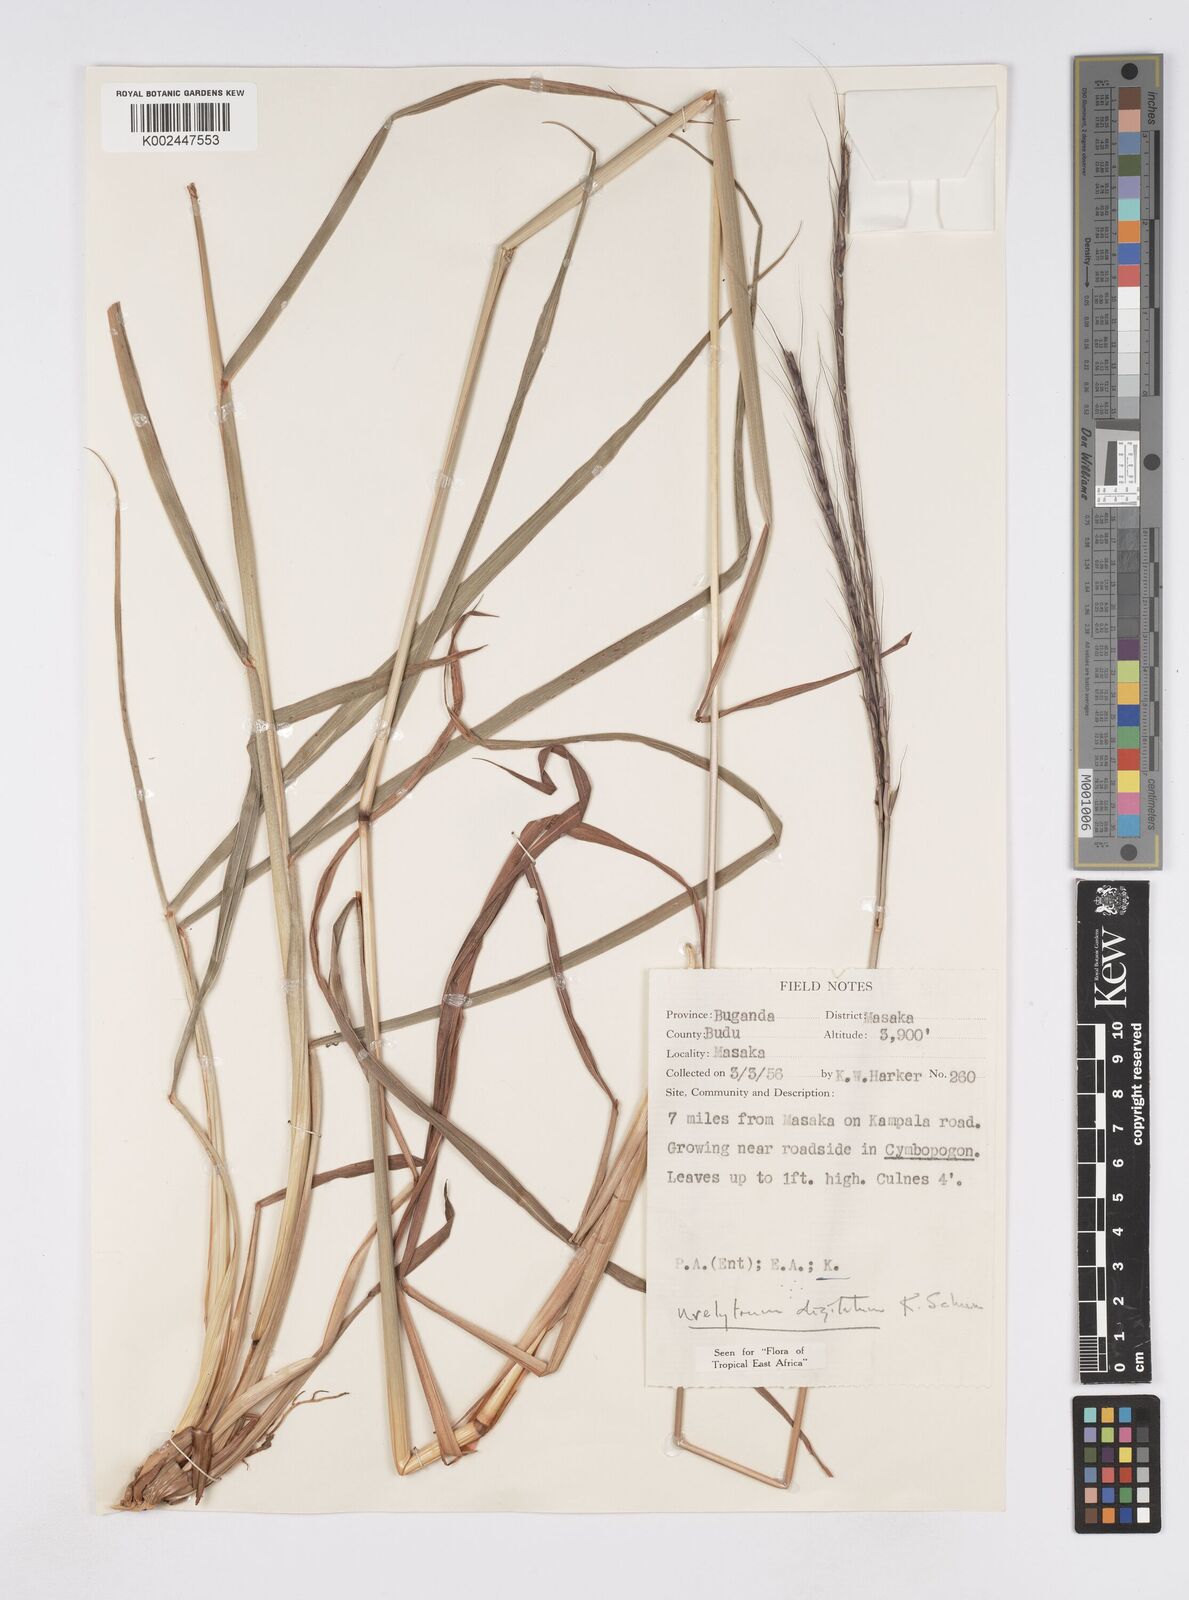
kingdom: Plantae
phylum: Tracheophyta
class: Liliopsida
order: Poales
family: Poaceae
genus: Urelytrum
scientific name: Urelytrum digitatum
